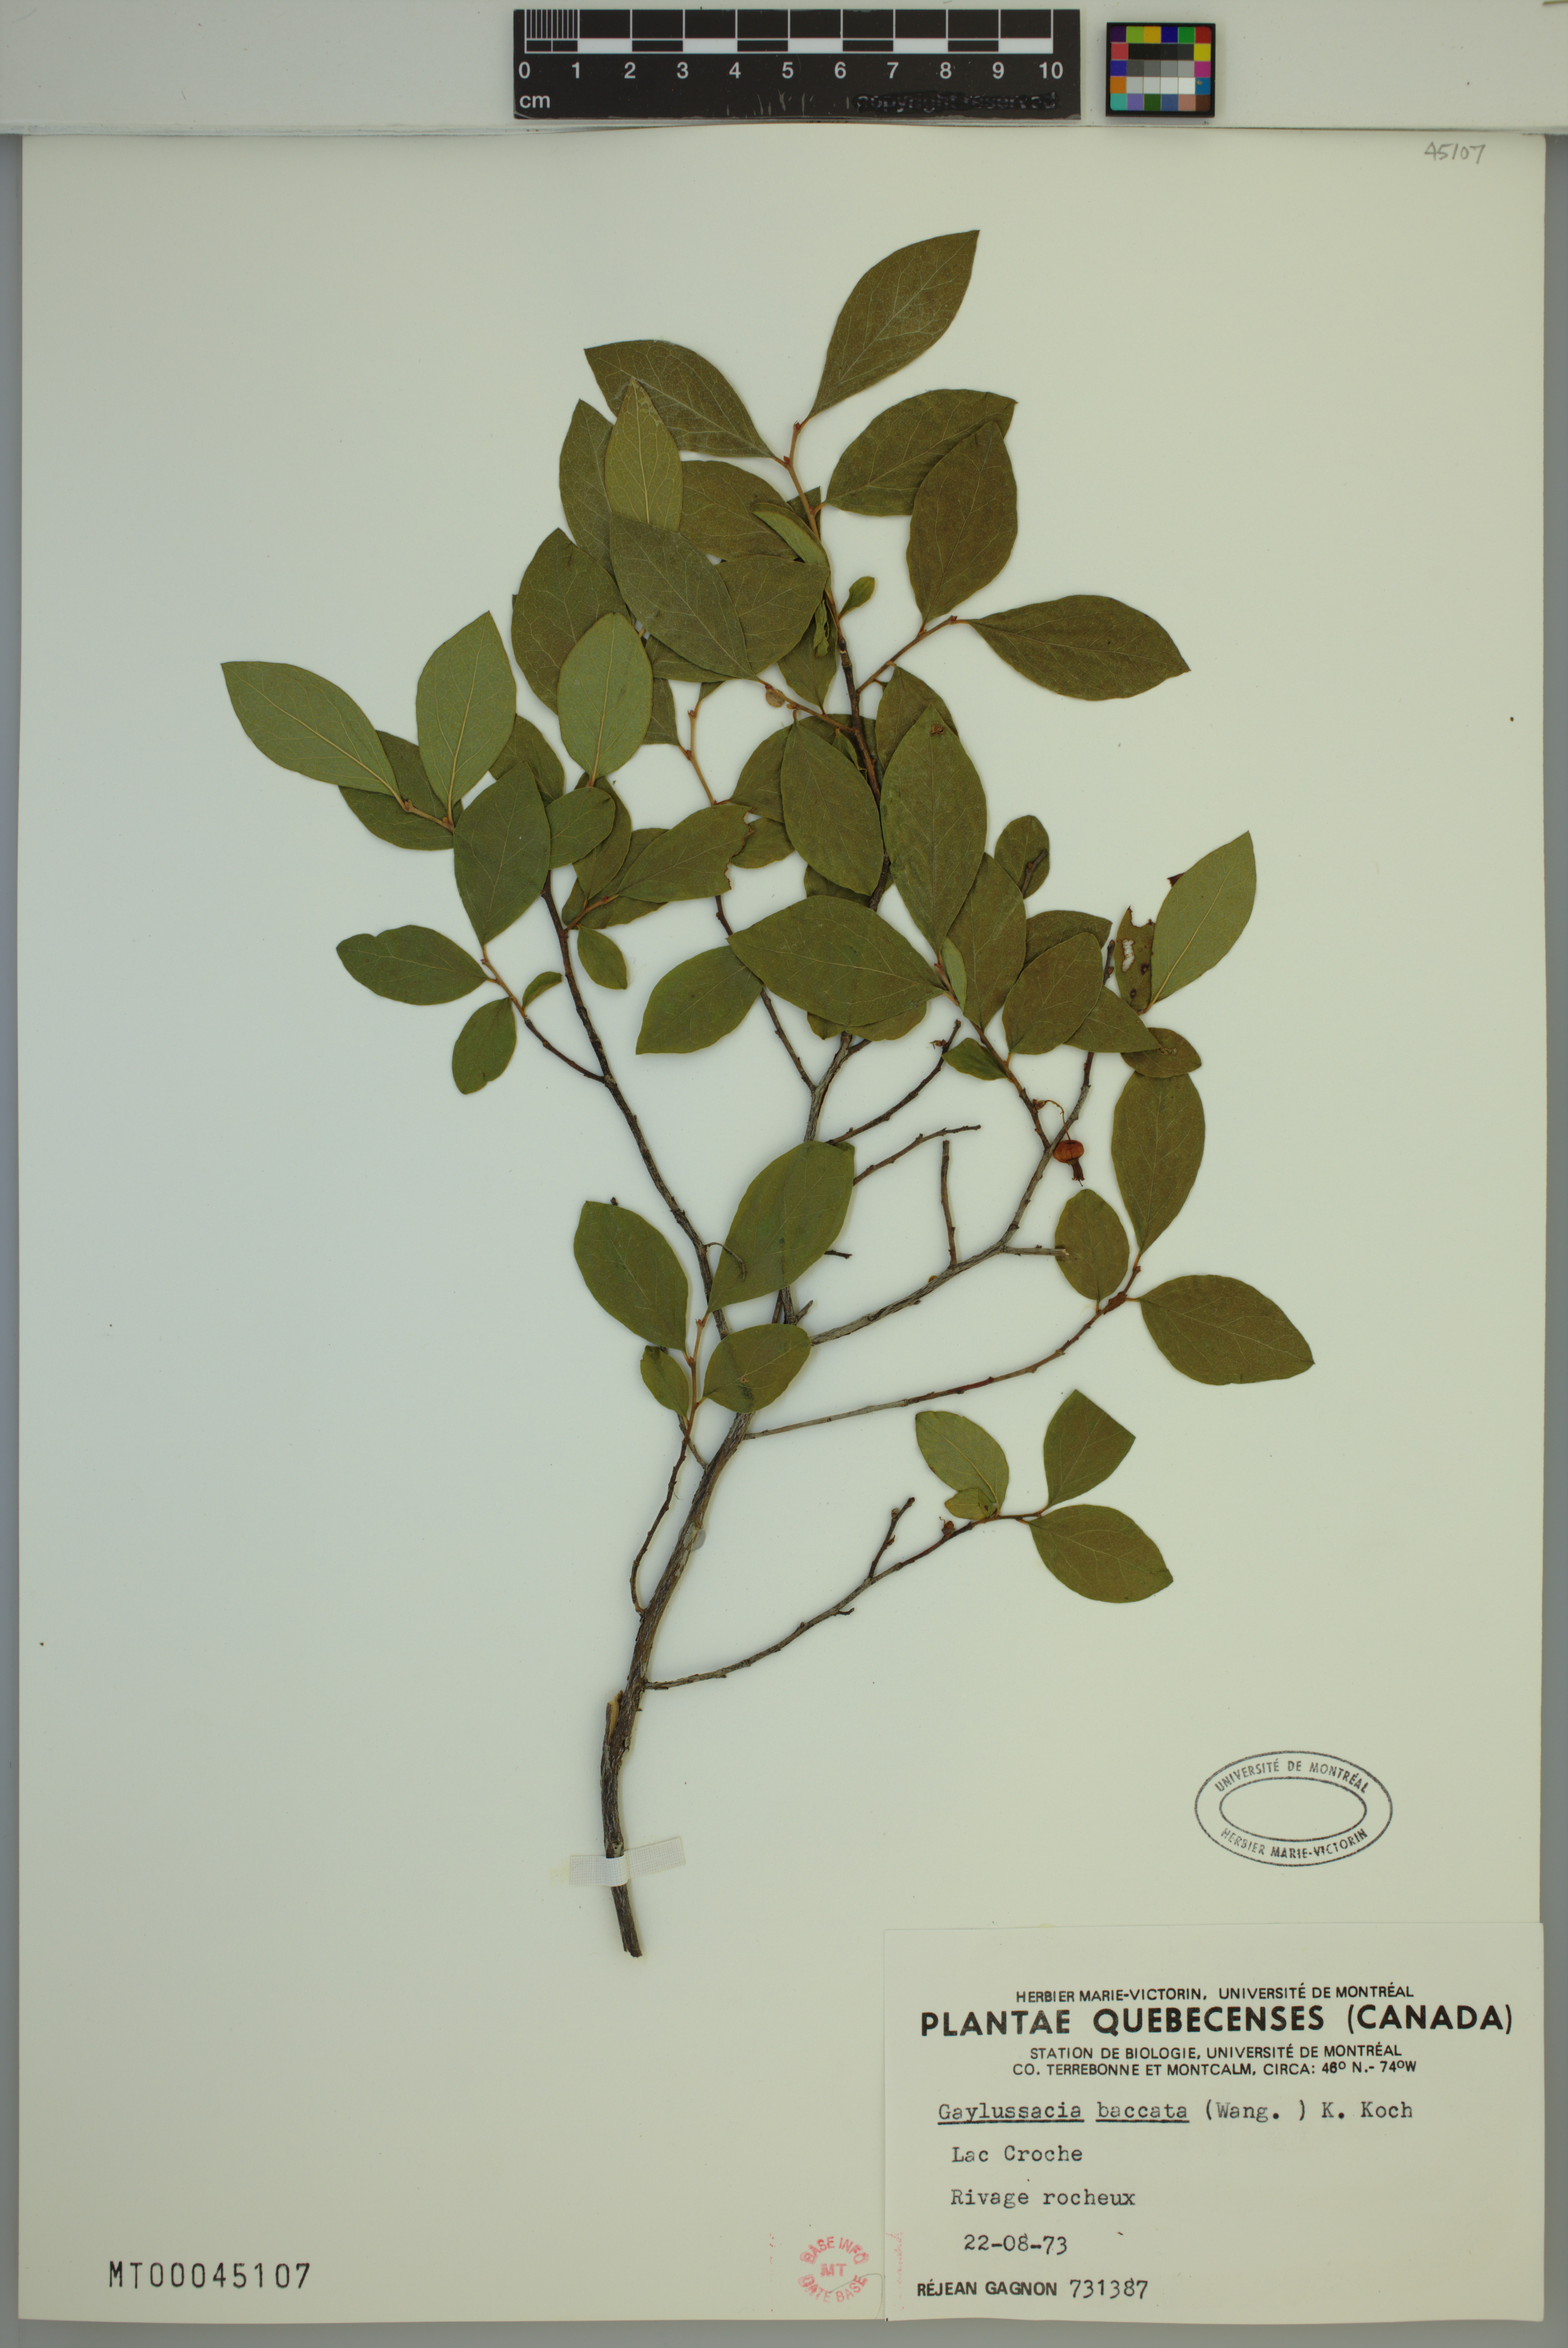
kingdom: Plantae
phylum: Tracheophyta
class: Magnoliopsida
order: Ericales
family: Ericaceae
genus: Gaylussacia
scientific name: Gaylussacia baccata
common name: Black huckleberry
